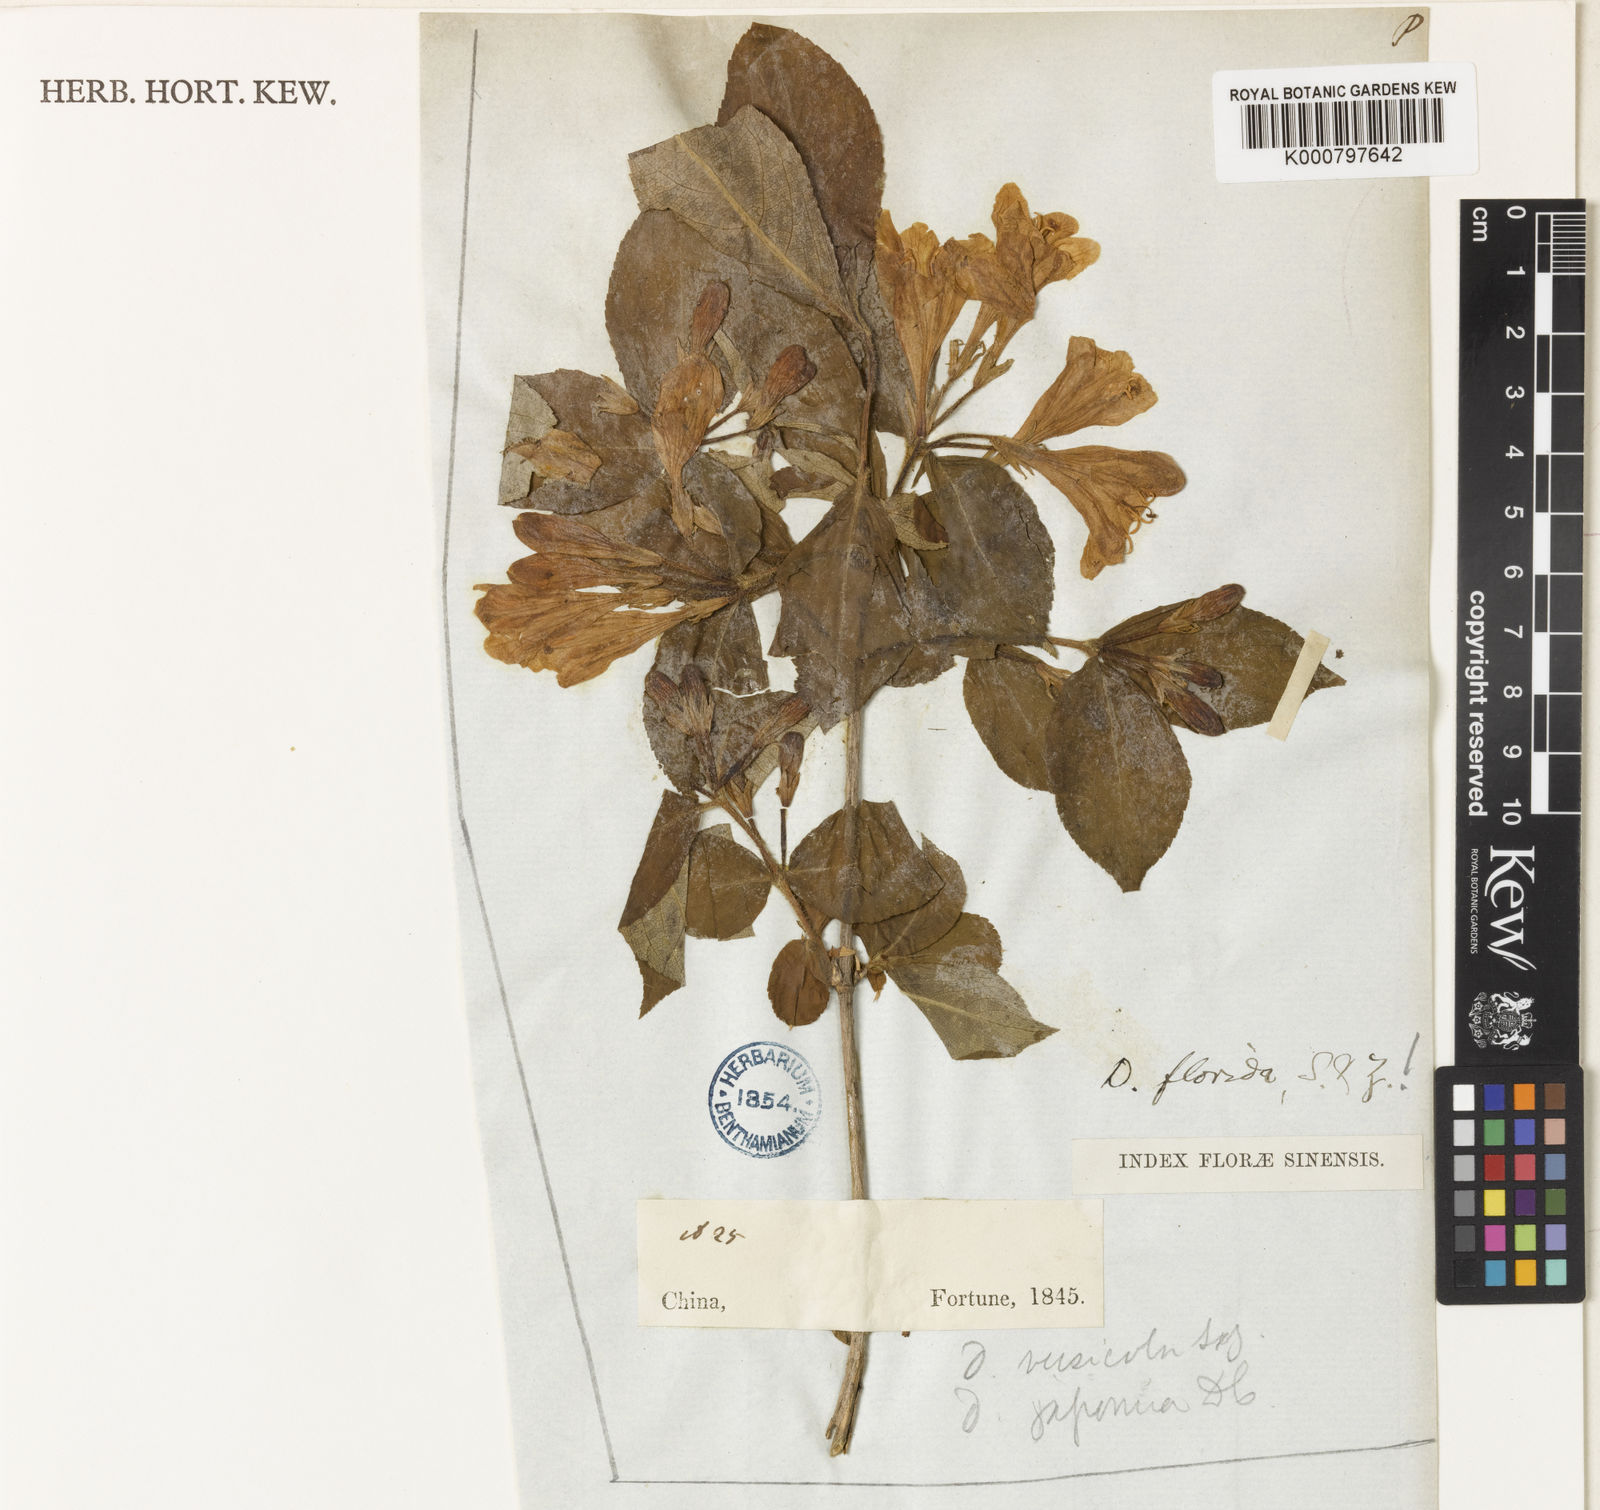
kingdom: Plantae
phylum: Tracheophyta
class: Magnoliopsida
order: Dipsacales
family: Caprifoliaceae
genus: Weigela
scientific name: Weigela florida
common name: Weigelia
